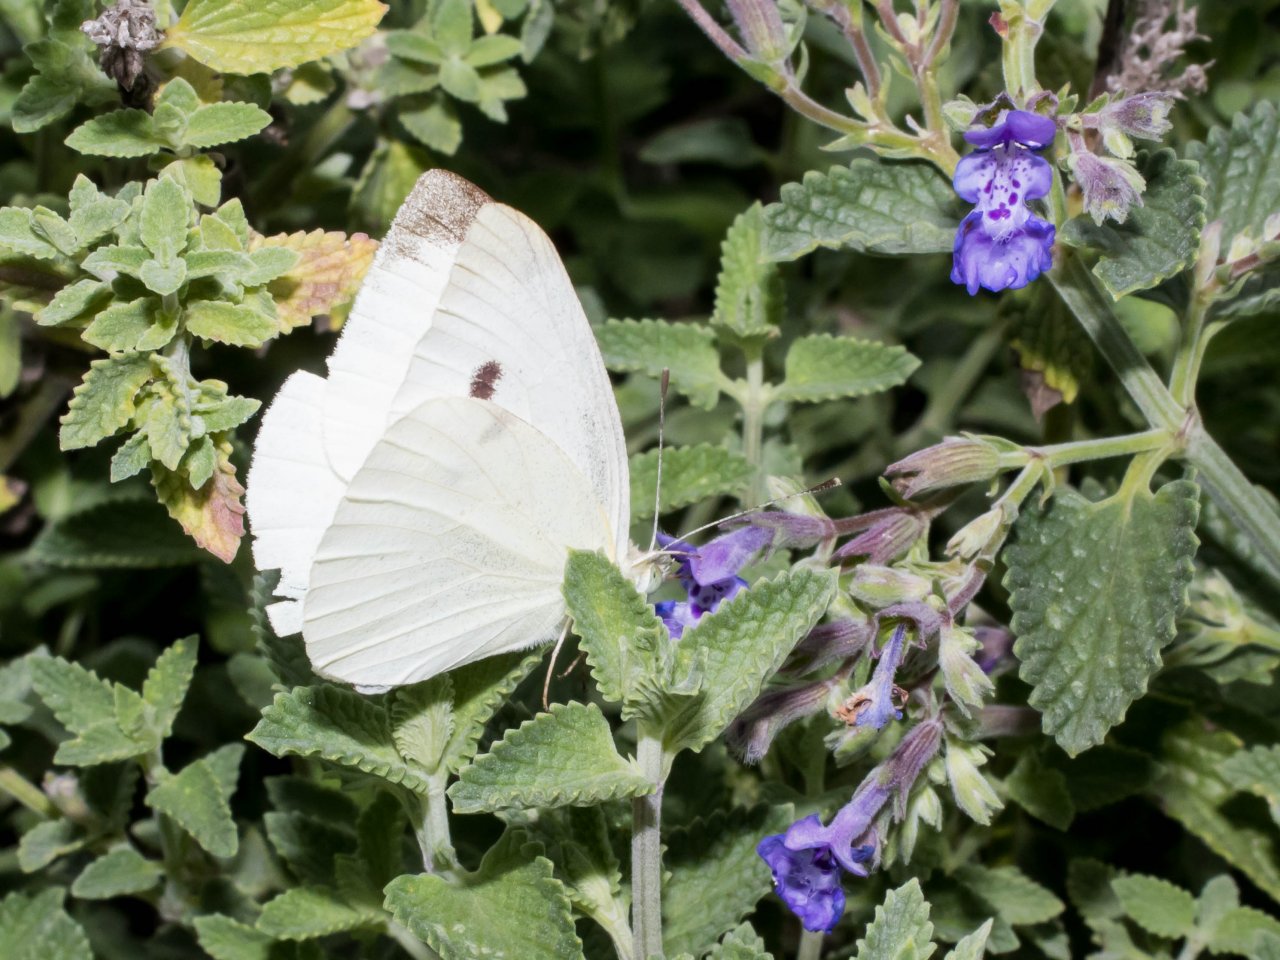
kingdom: Animalia
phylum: Arthropoda
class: Insecta
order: Lepidoptera
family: Pieridae
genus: Pieris
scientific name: Pieris rapae
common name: Cabbage White
